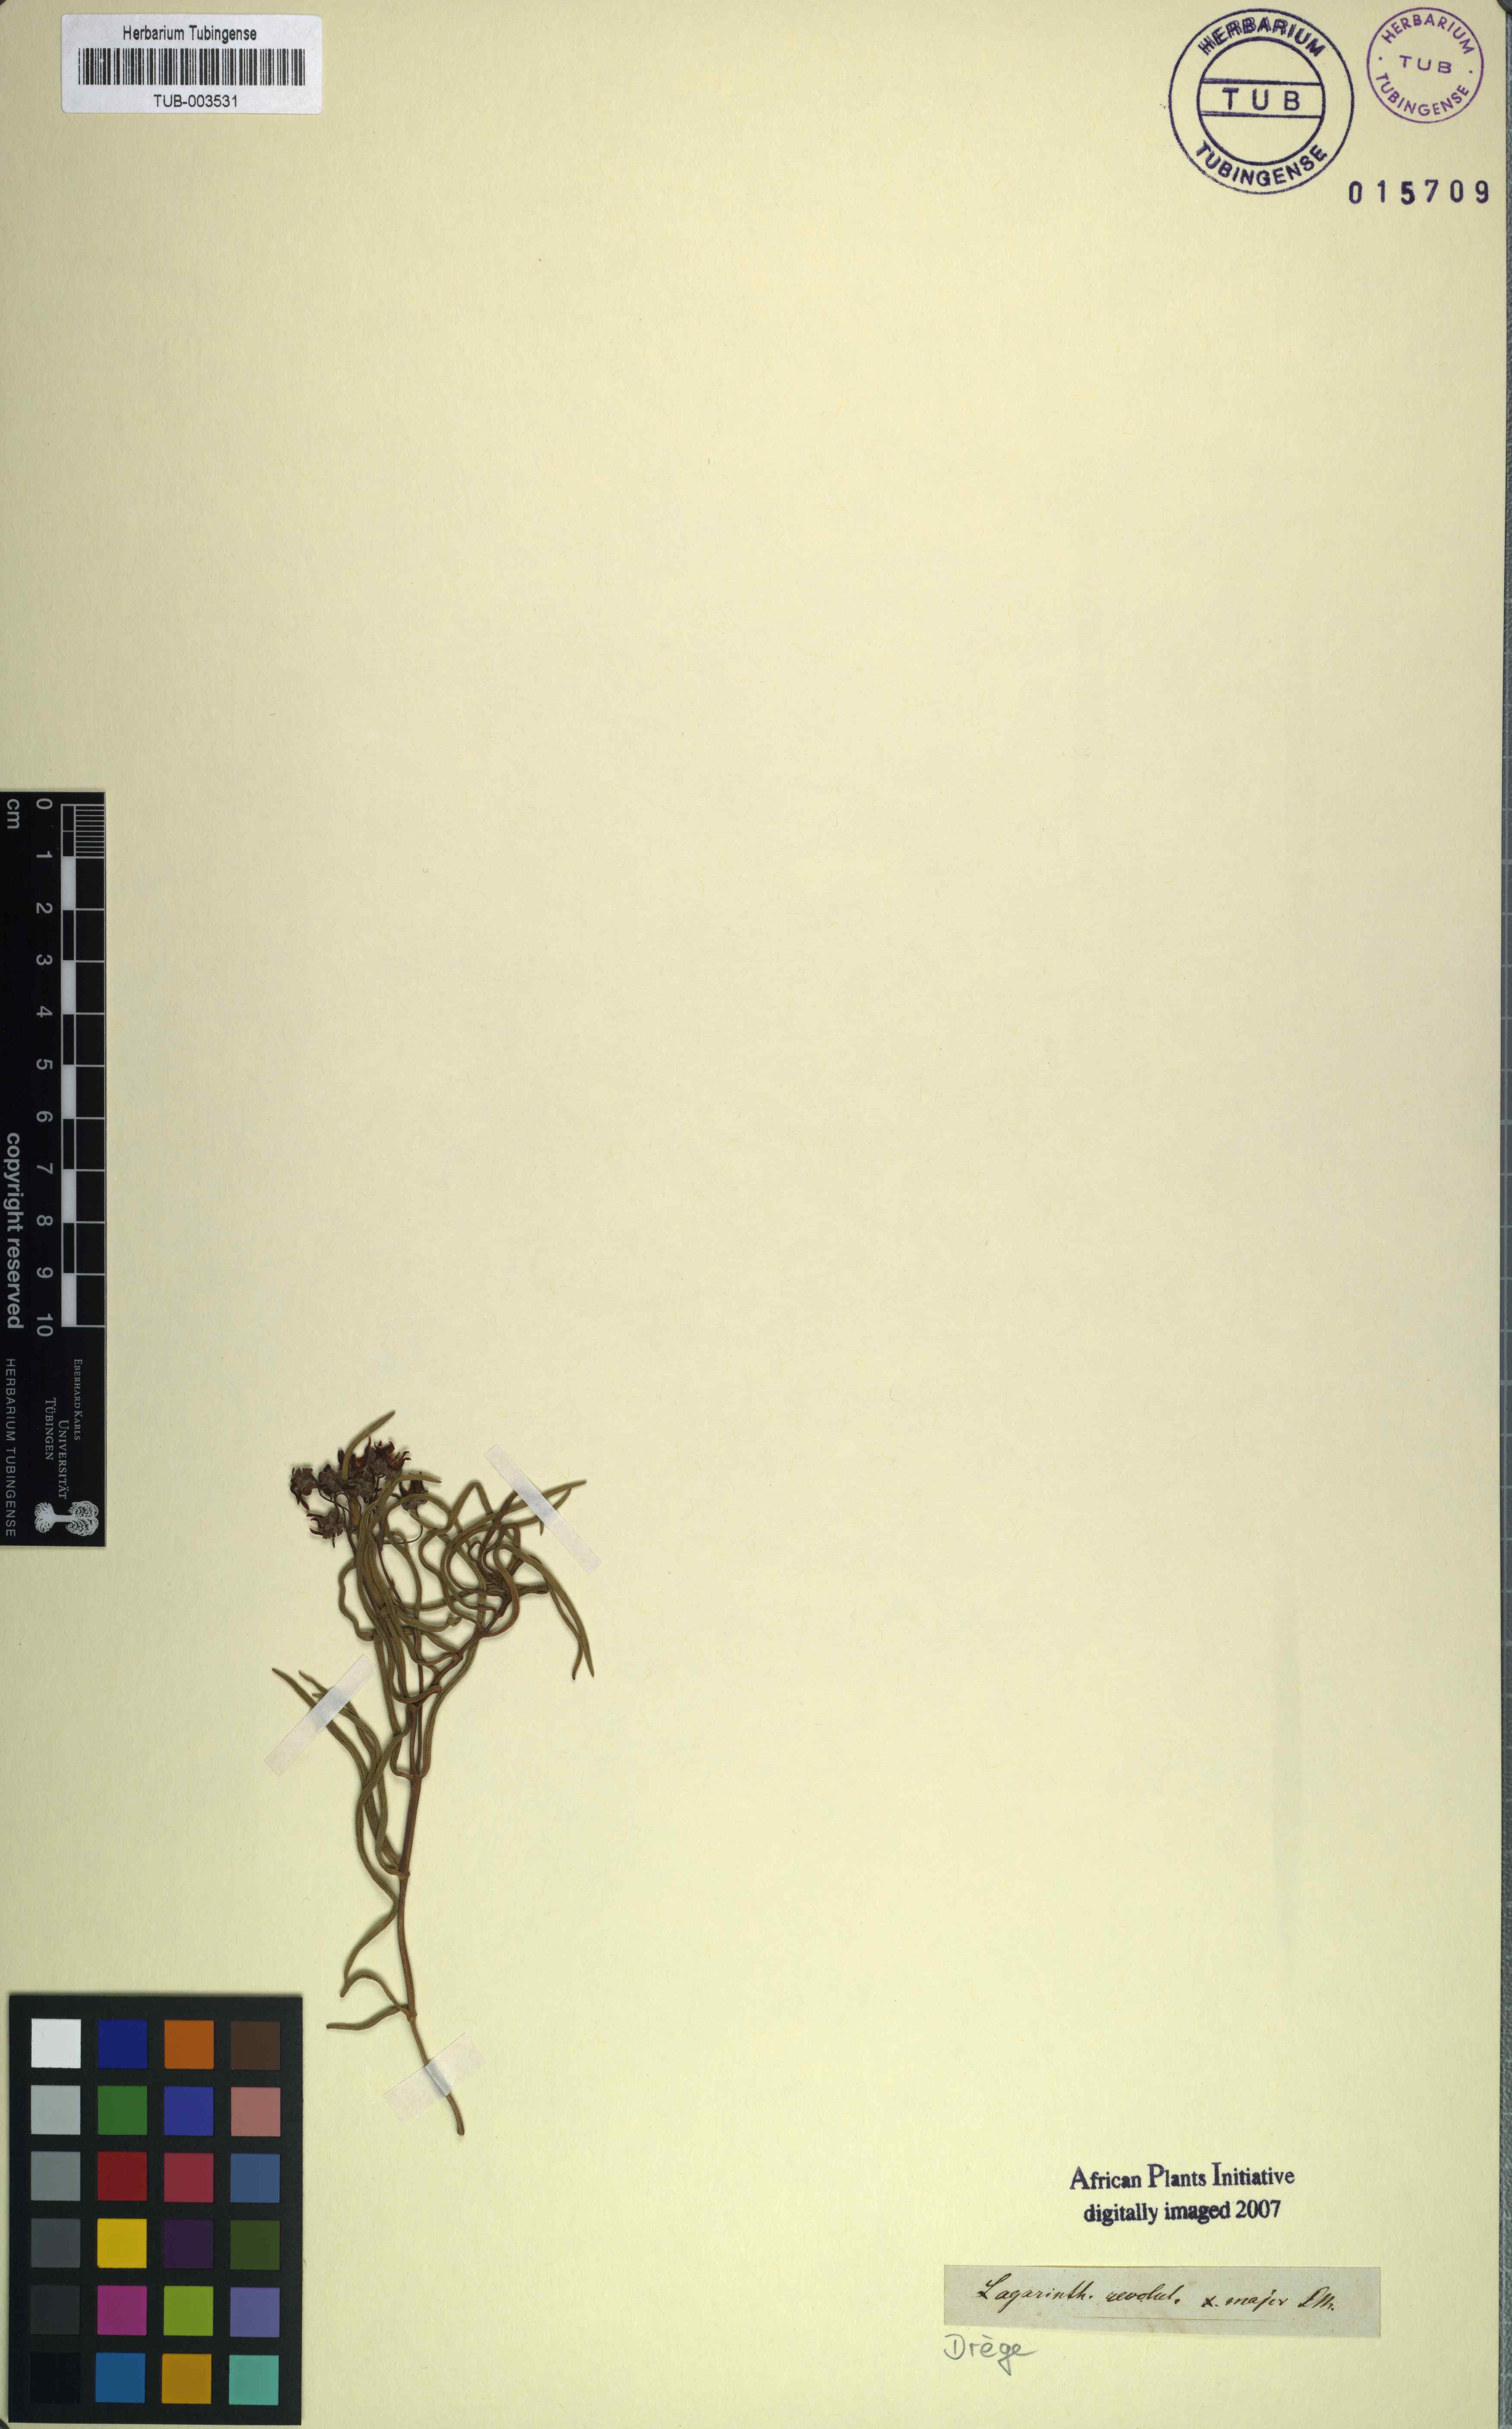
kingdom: Plantae
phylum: Tracheophyta
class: Magnoliopsida
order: Gentianales
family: Apocynaceae
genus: Asclepias
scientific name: Asclepias stellifera
